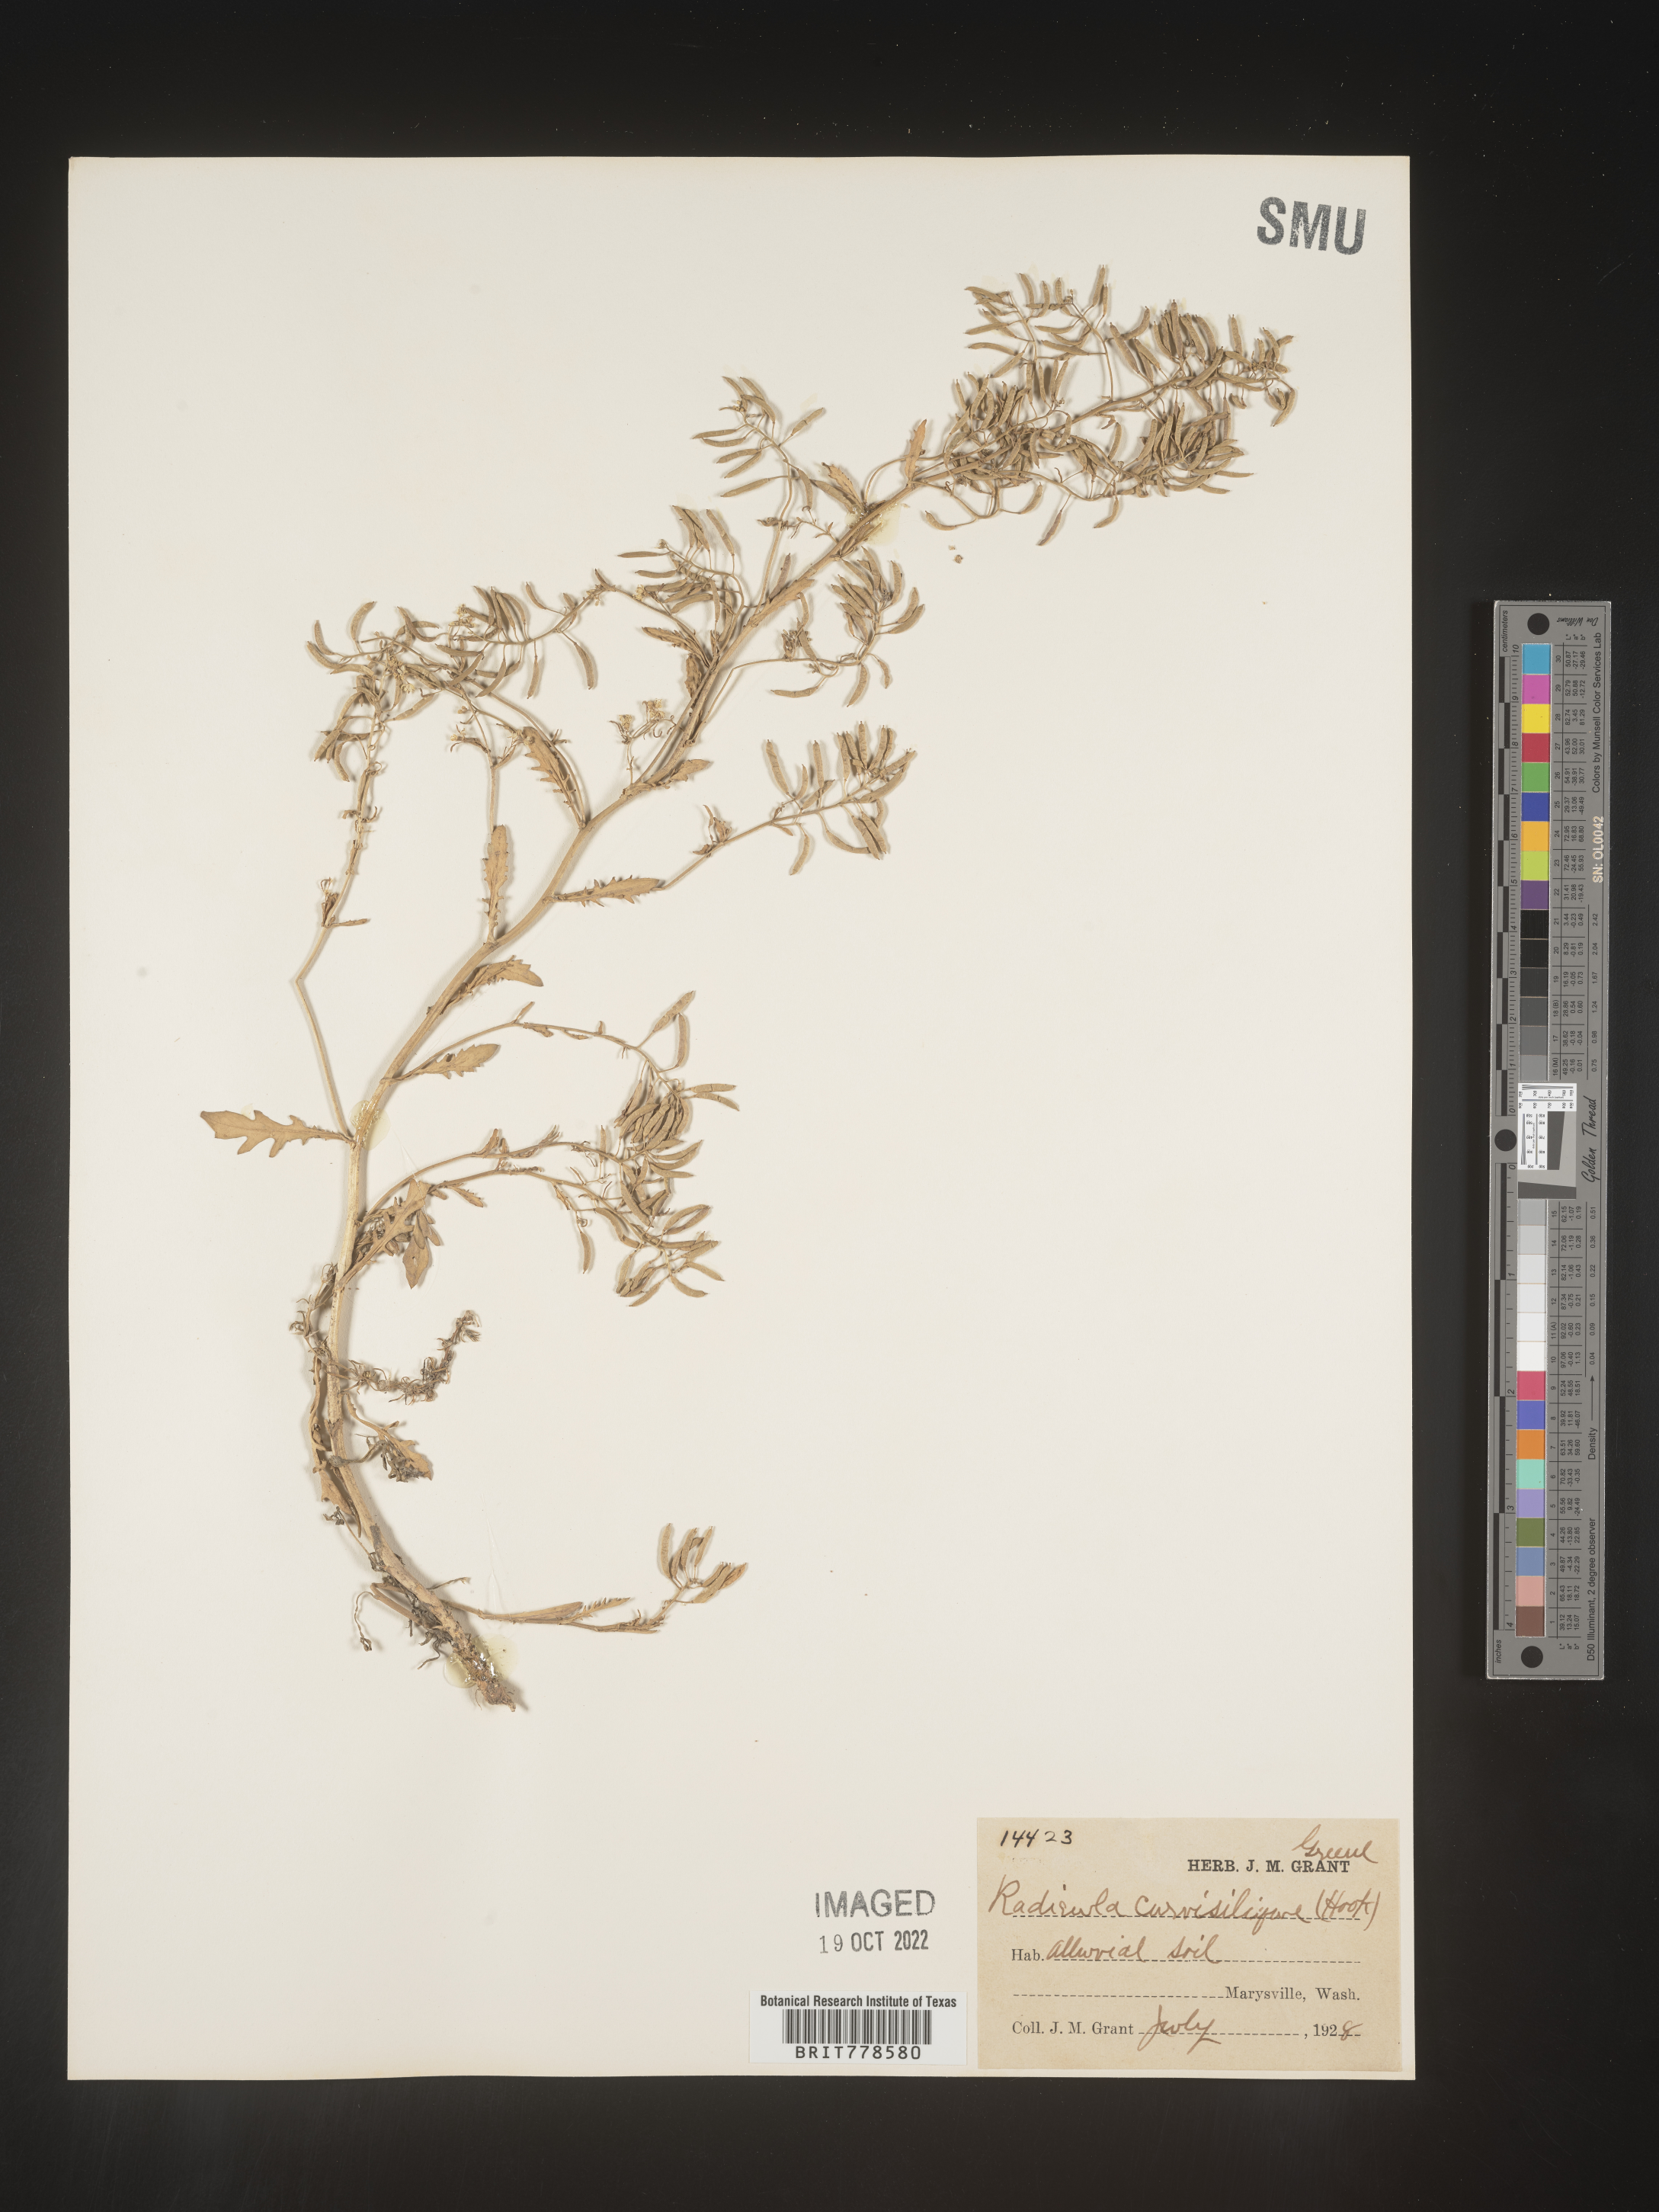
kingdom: Plantae
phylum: Tracheophyta
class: Magnoliopsida
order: Brassicales
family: Brassicaceae
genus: Rorippa
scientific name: Rorippa
